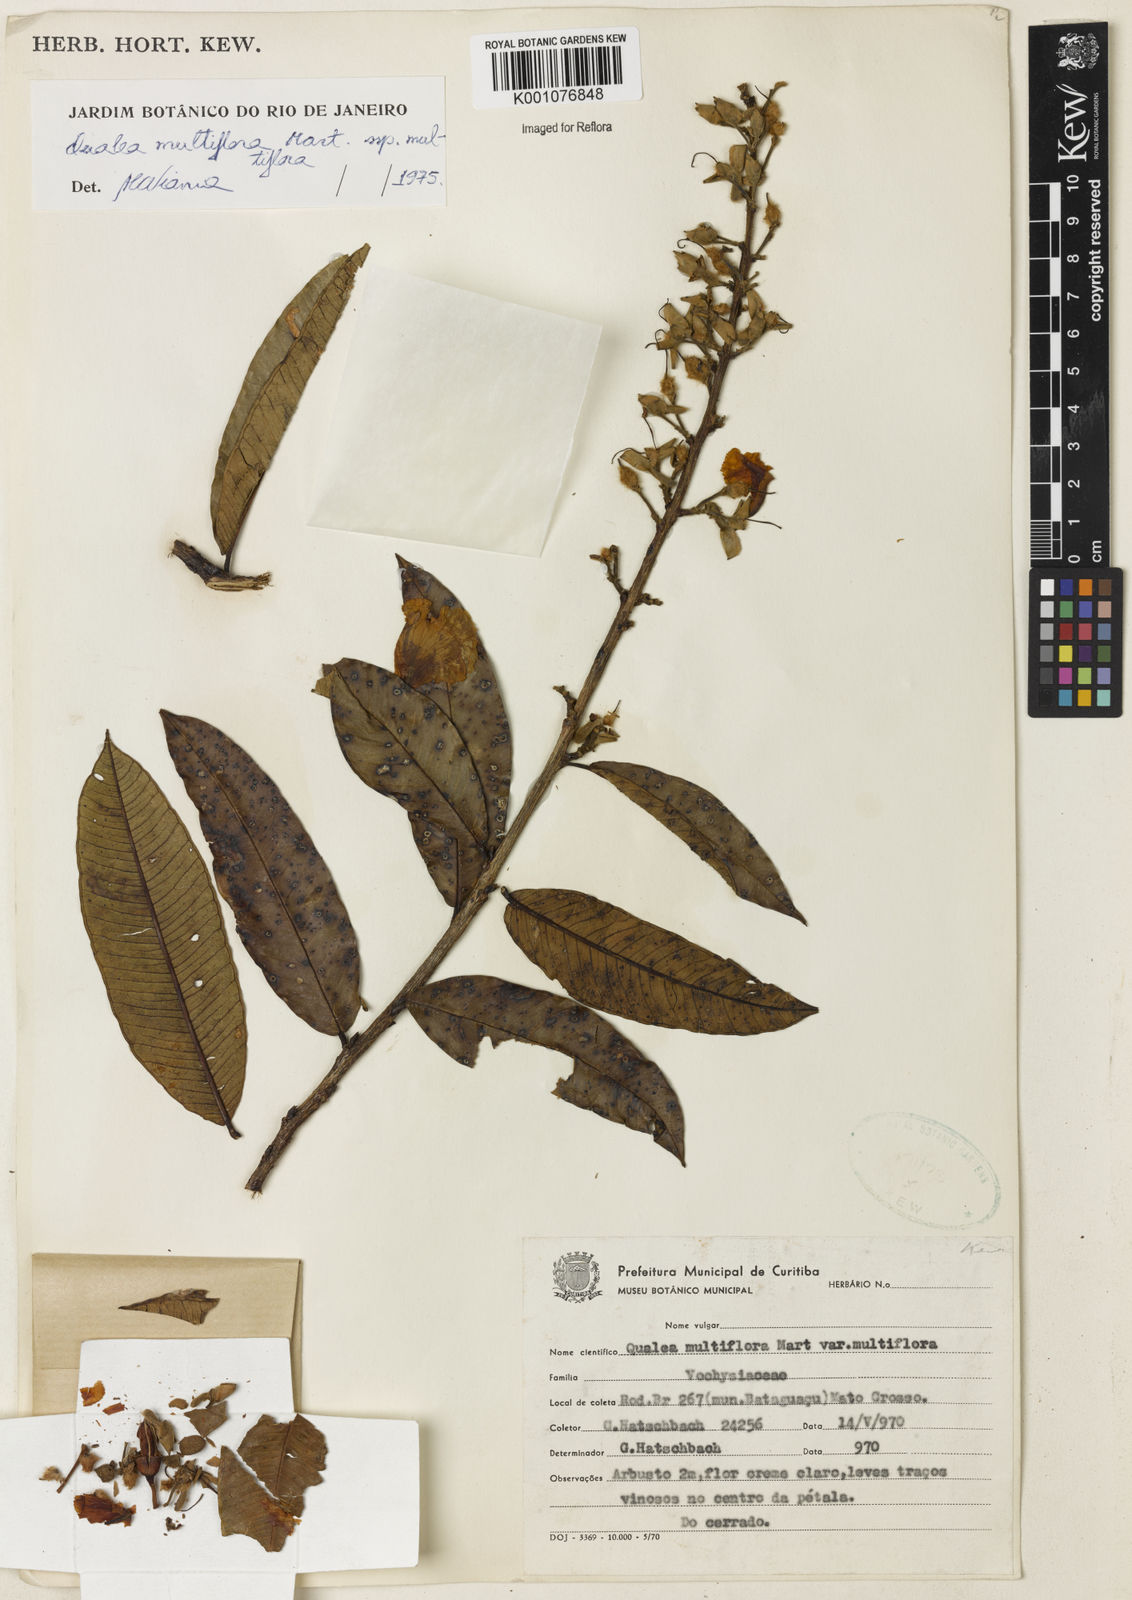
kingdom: Plantae
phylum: Tracheophyta
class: Magnoliopsida
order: Myrtales
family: Vochysiaceae
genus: Qualea
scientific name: Qualea multiflora
